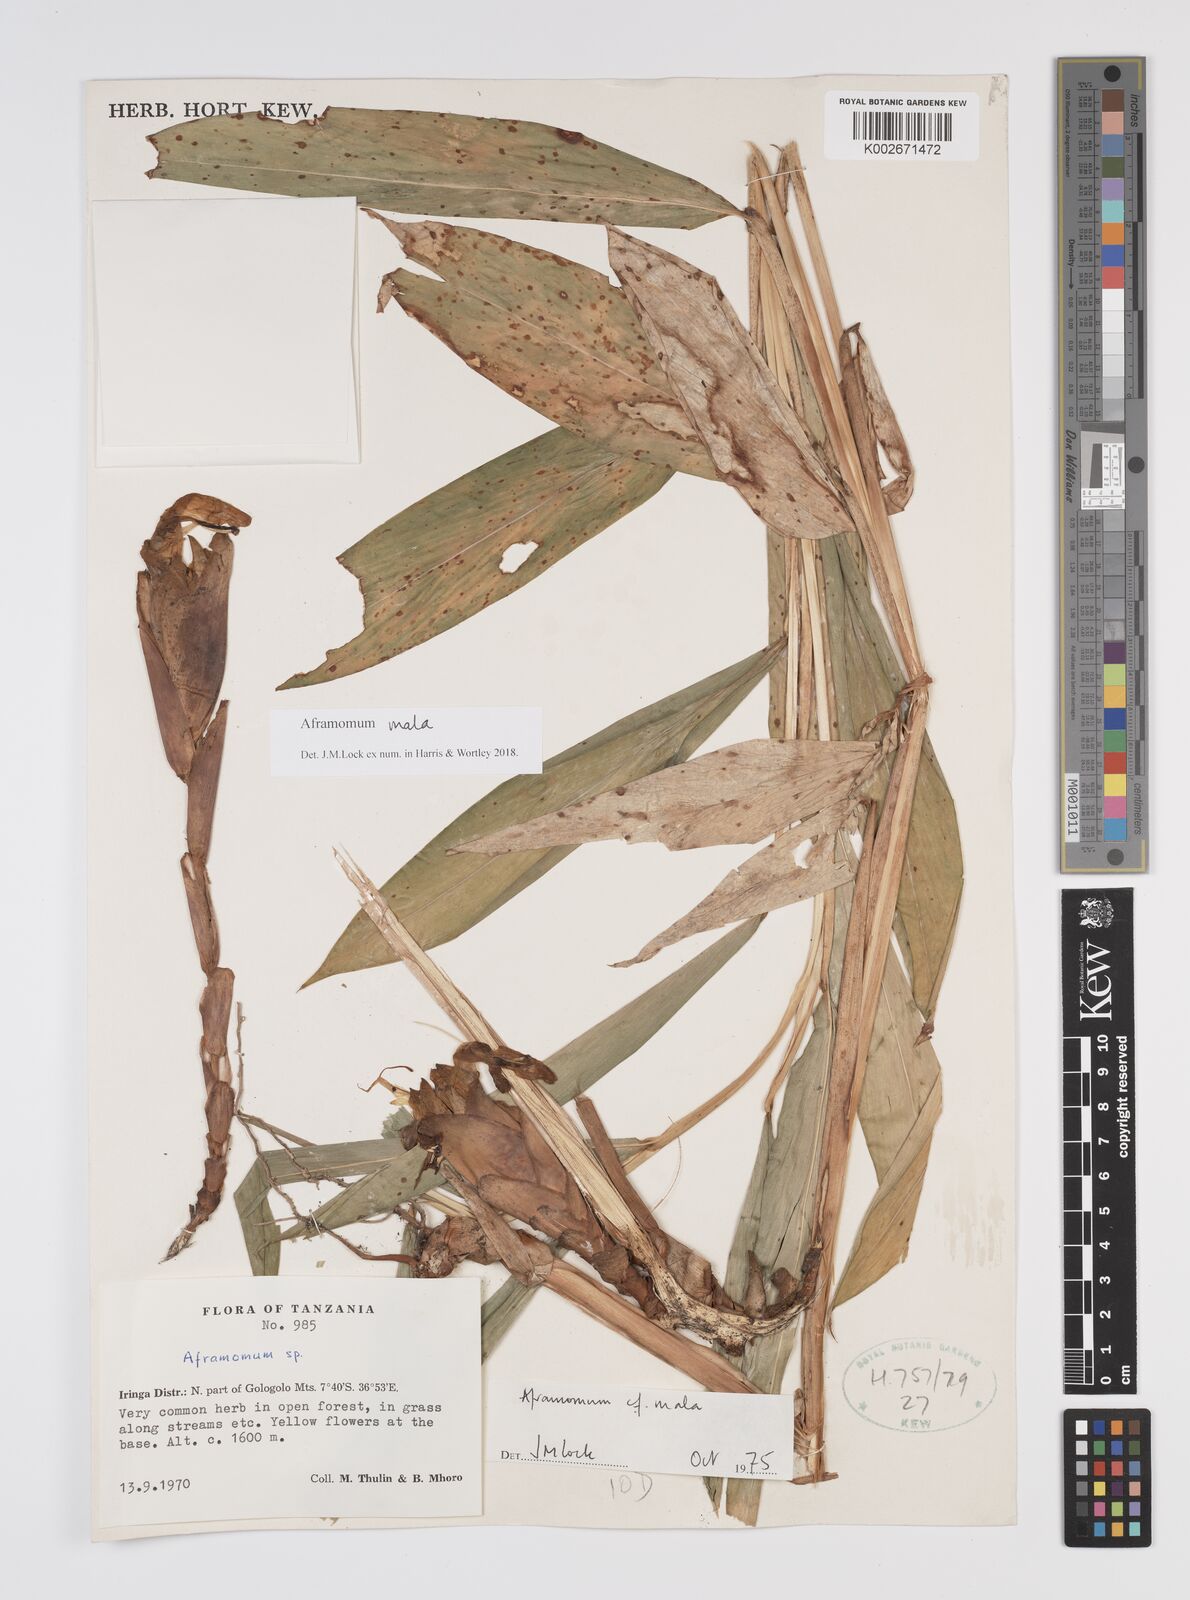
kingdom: Plantae
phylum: Tracheophyta
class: Liliopsida
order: Zingiberales
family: Zingiberaceae
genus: Aframomum
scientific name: Aframomum mala
